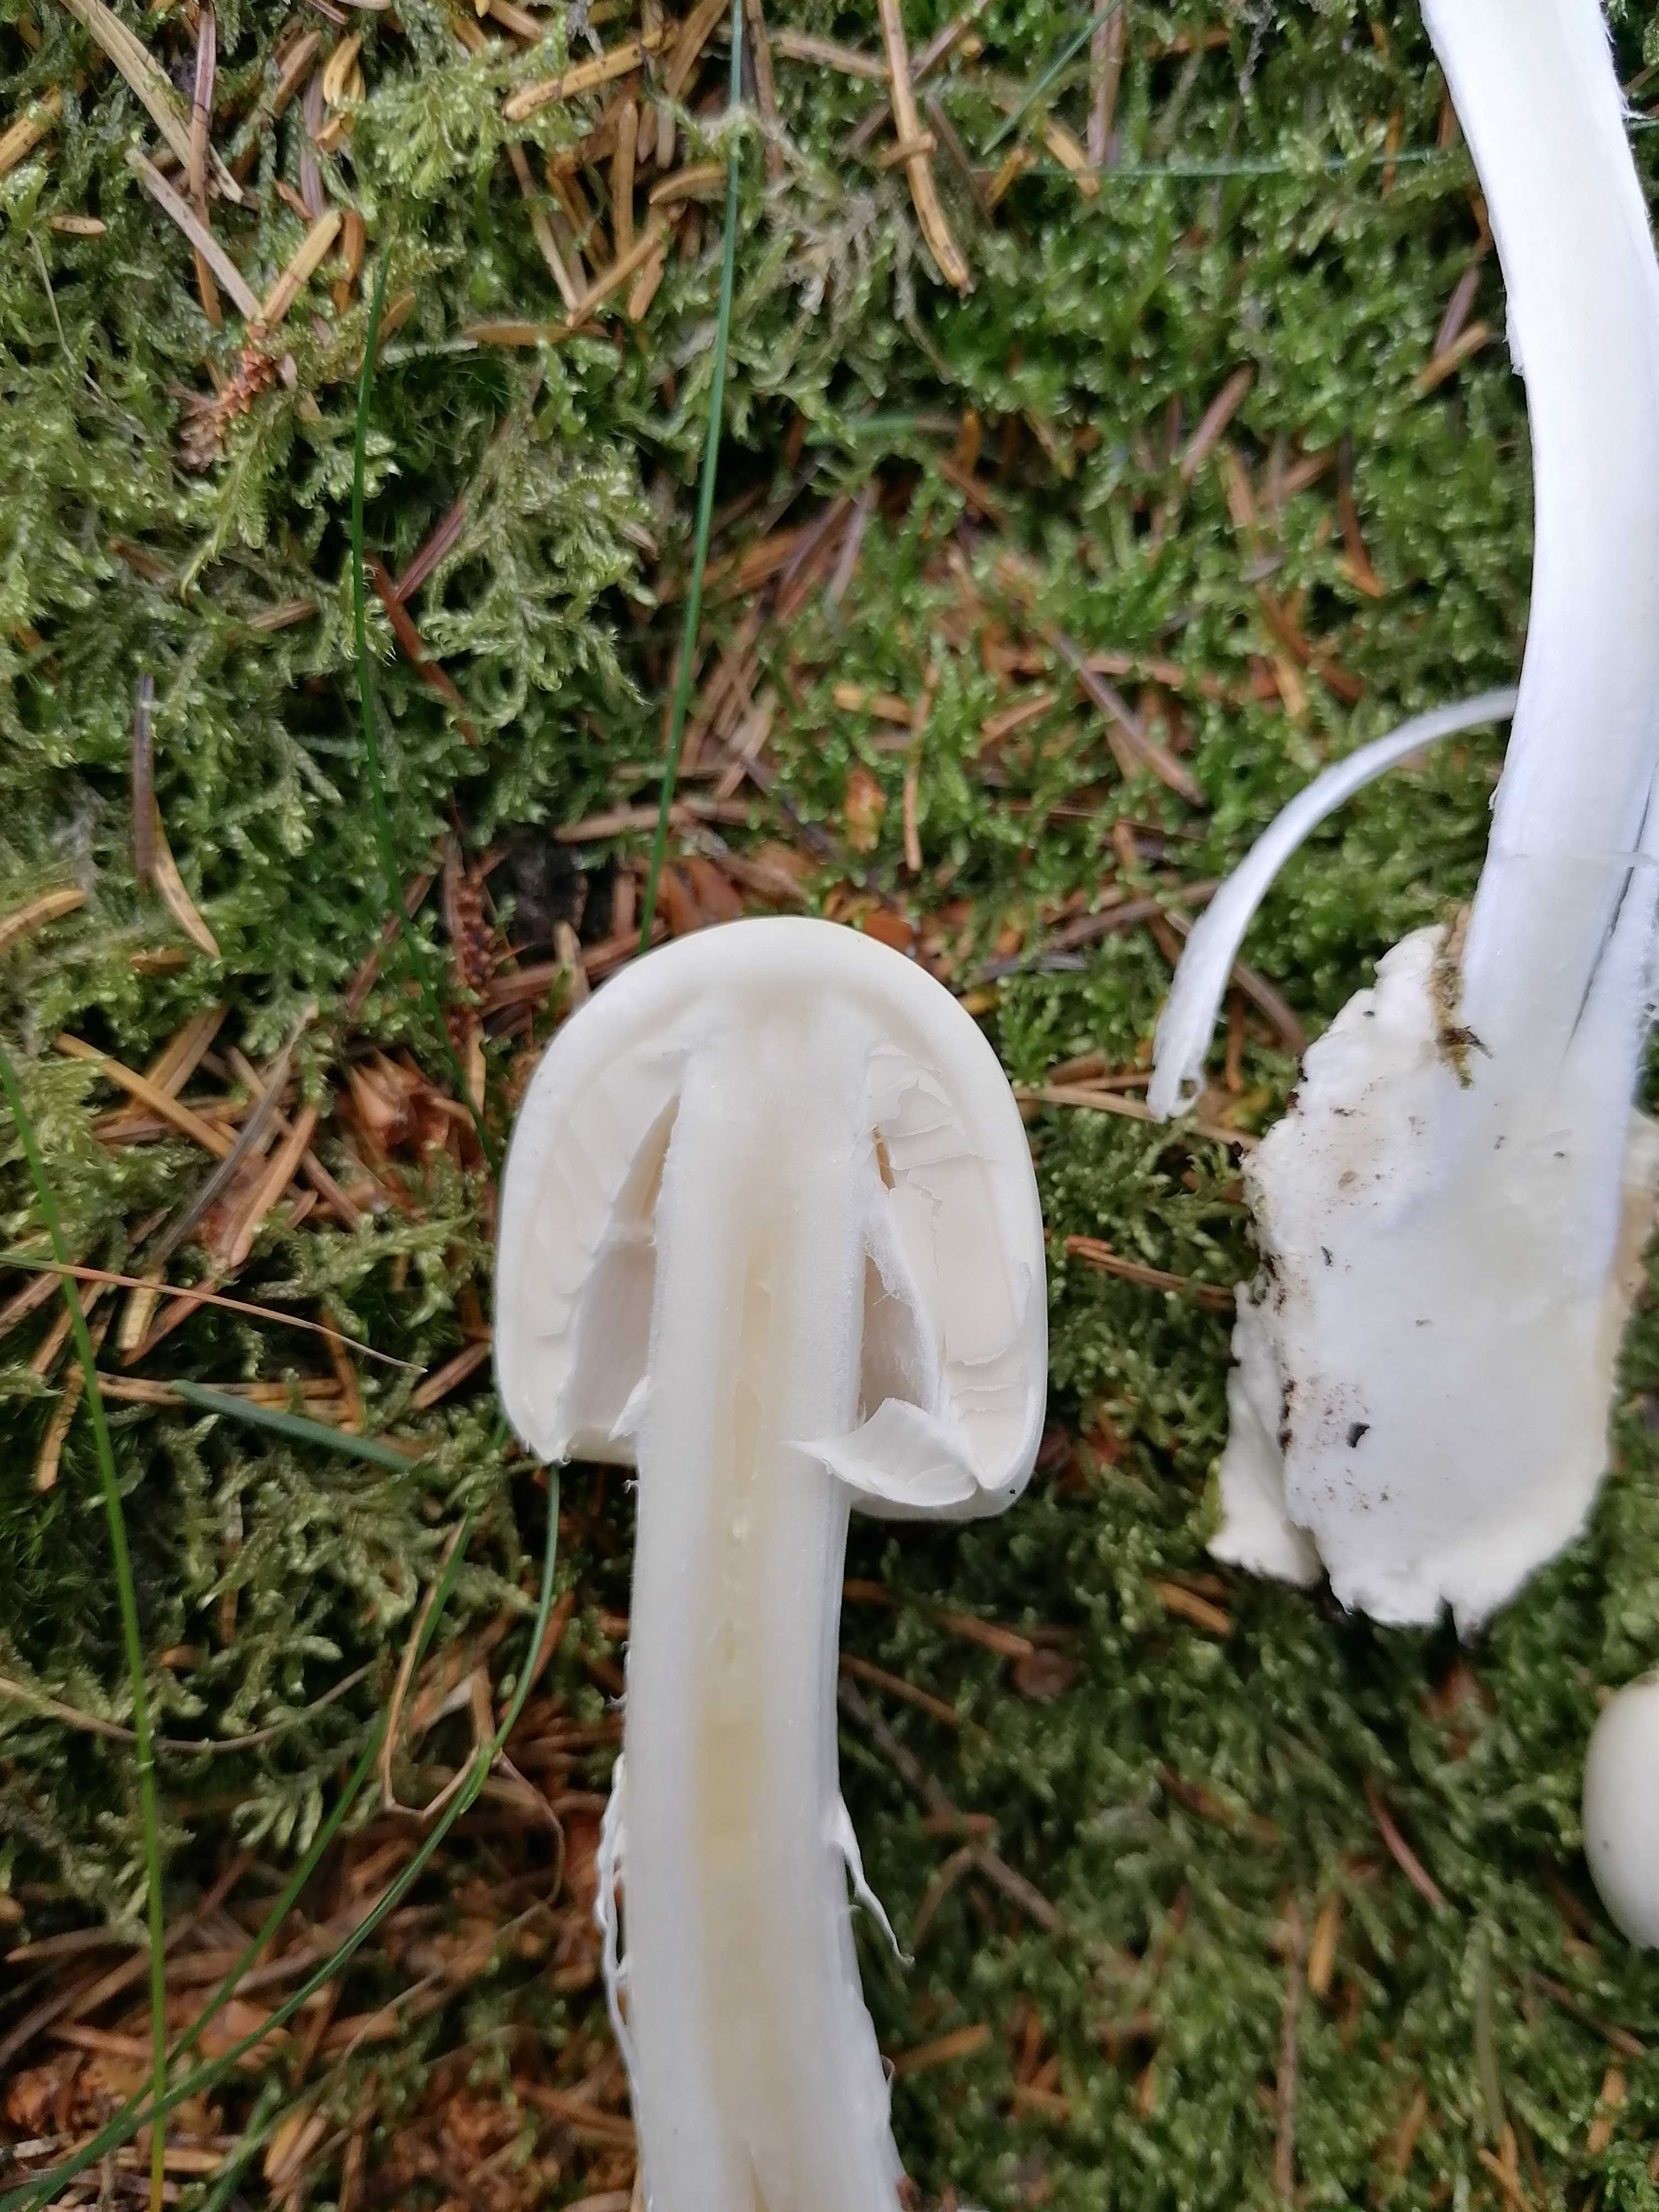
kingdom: Fungi
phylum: Basidiomycota
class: Agaricomycetes
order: Agaricales
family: Amanitaceae
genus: Amanita
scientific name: Amanita virosa
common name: snehvid fluesvamp
